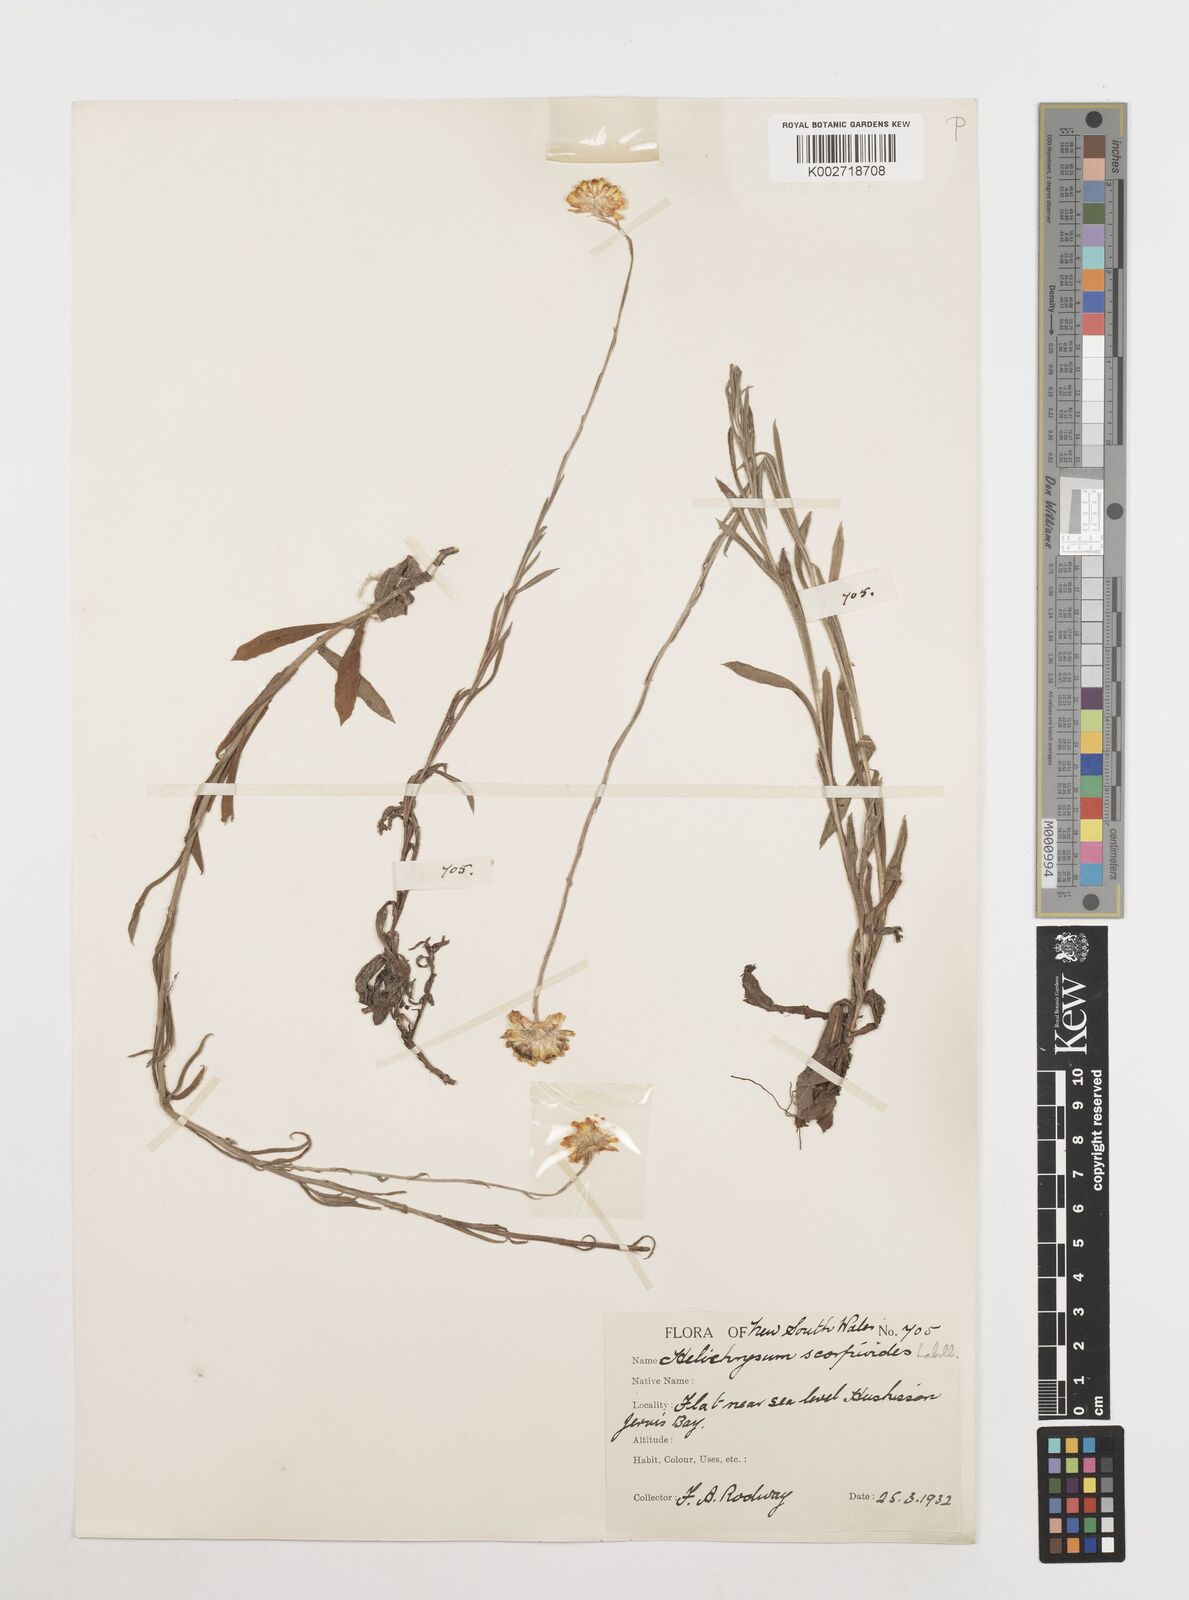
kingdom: Plantae
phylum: Tracheophyta
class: Magnoliopsida
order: Asterales
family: Asteraceae
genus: Coronidium
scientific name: Coronidium scorpioides
